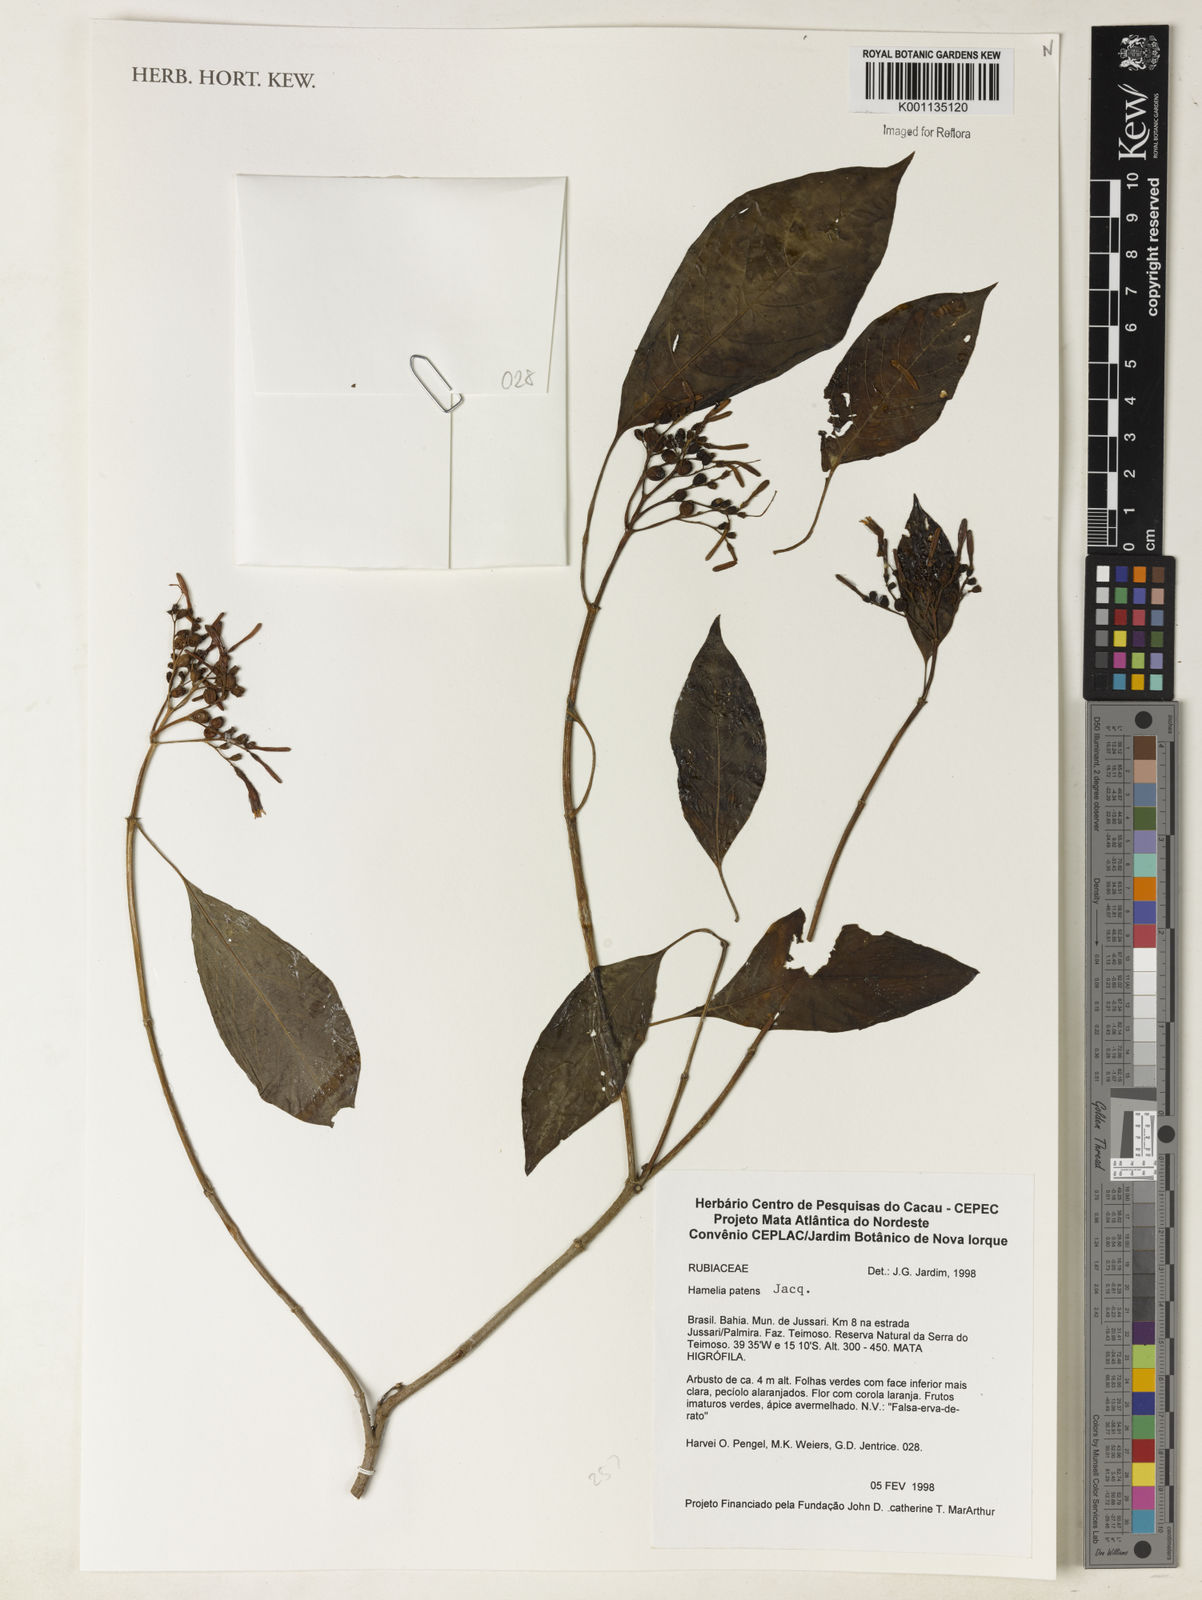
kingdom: Plantae
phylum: Tracheophyta
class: Magnoliopsida
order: Gentianales
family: Rubiaceae
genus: Hamelia
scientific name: Hamelia patens
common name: Redhead
